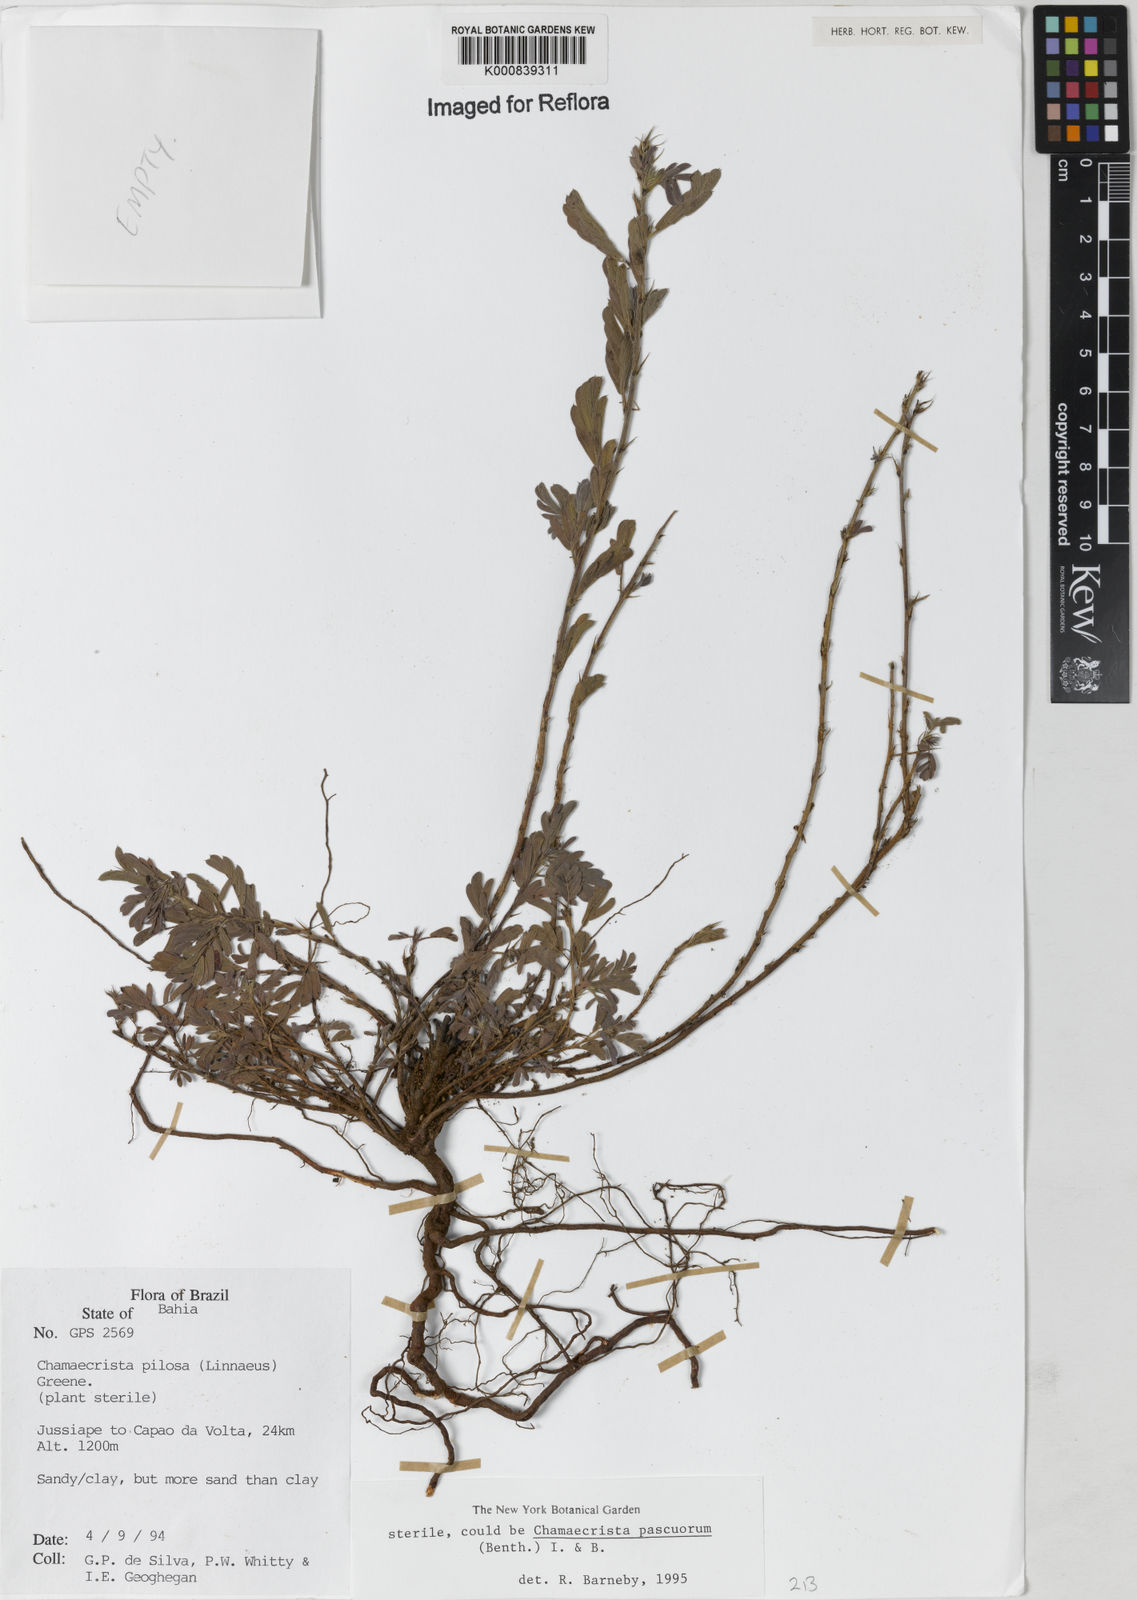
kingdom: Plantae
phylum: Tracheophyta
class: Magnoliopsida
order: Fabales
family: Fabaceae
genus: Chamaecrista
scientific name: Chamaecrista pilosa
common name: Hairy sensitive pea
